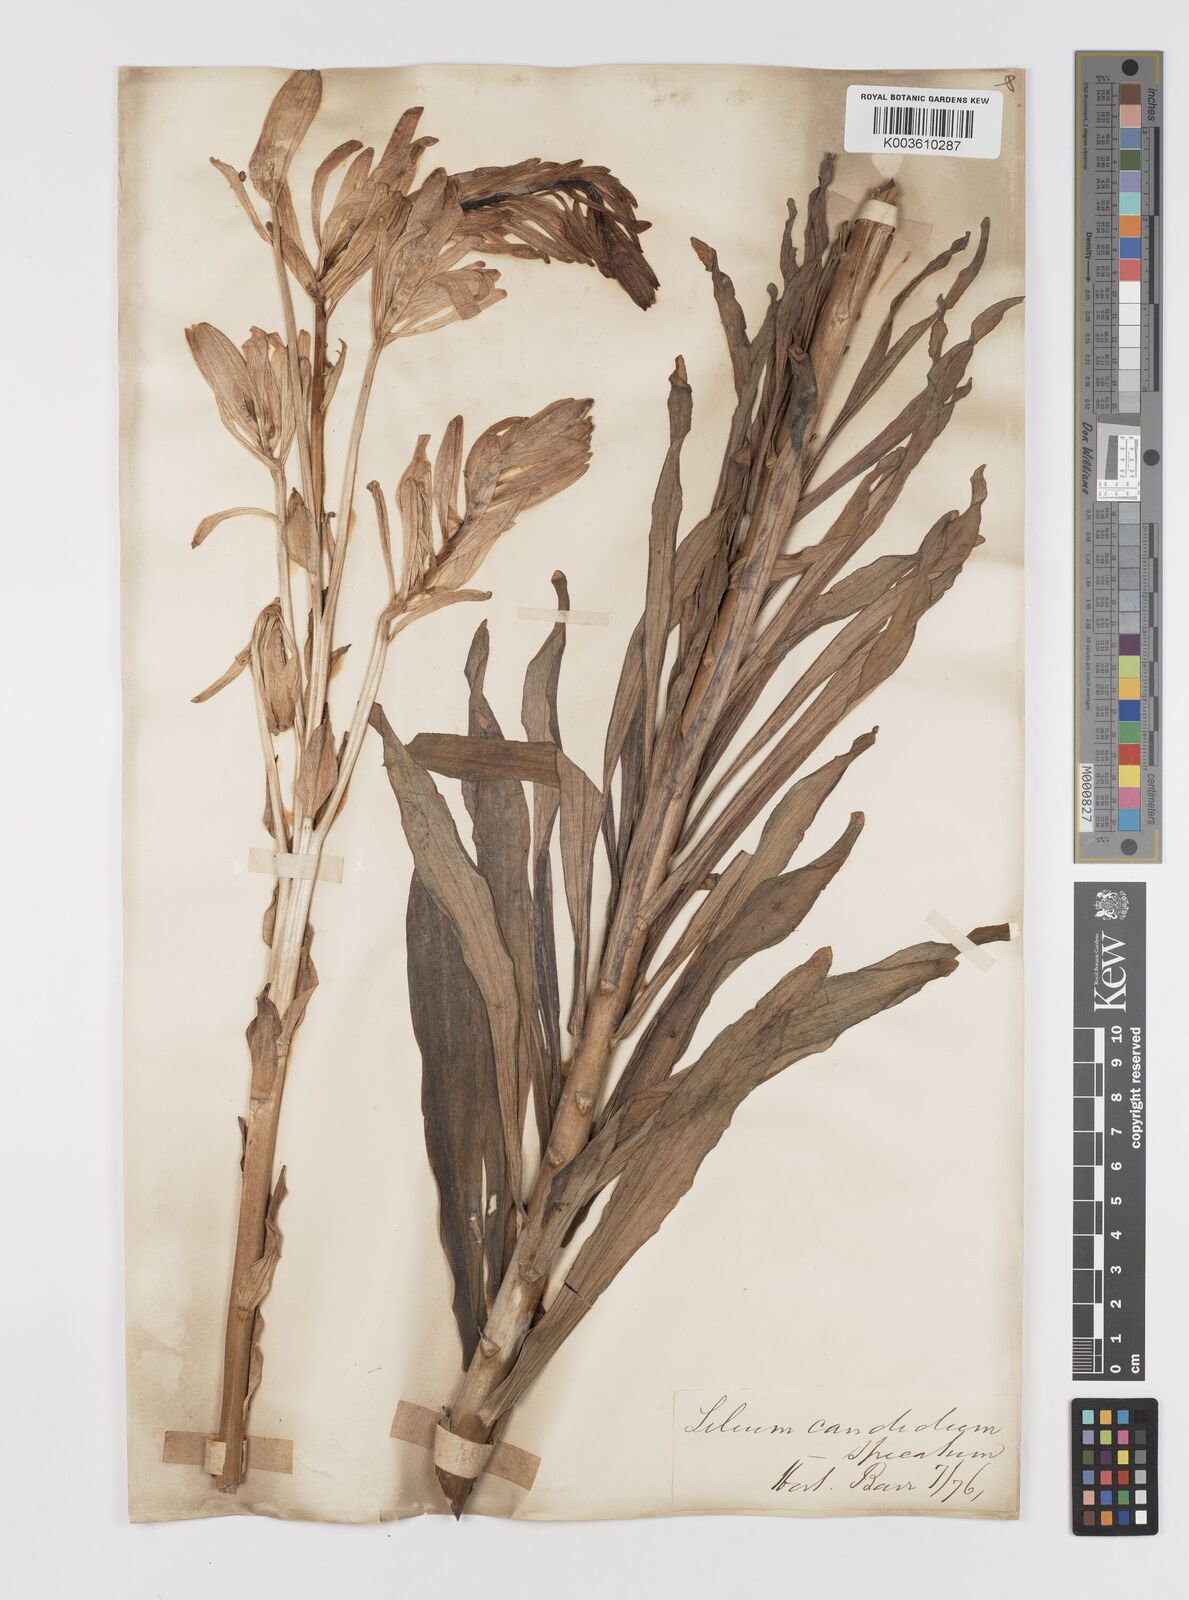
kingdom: Plantae
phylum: Tracheophyta
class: Liliopsida
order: Liliales
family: Liliaceae
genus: Lilium
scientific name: Lilium candidum
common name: Madonna lily
